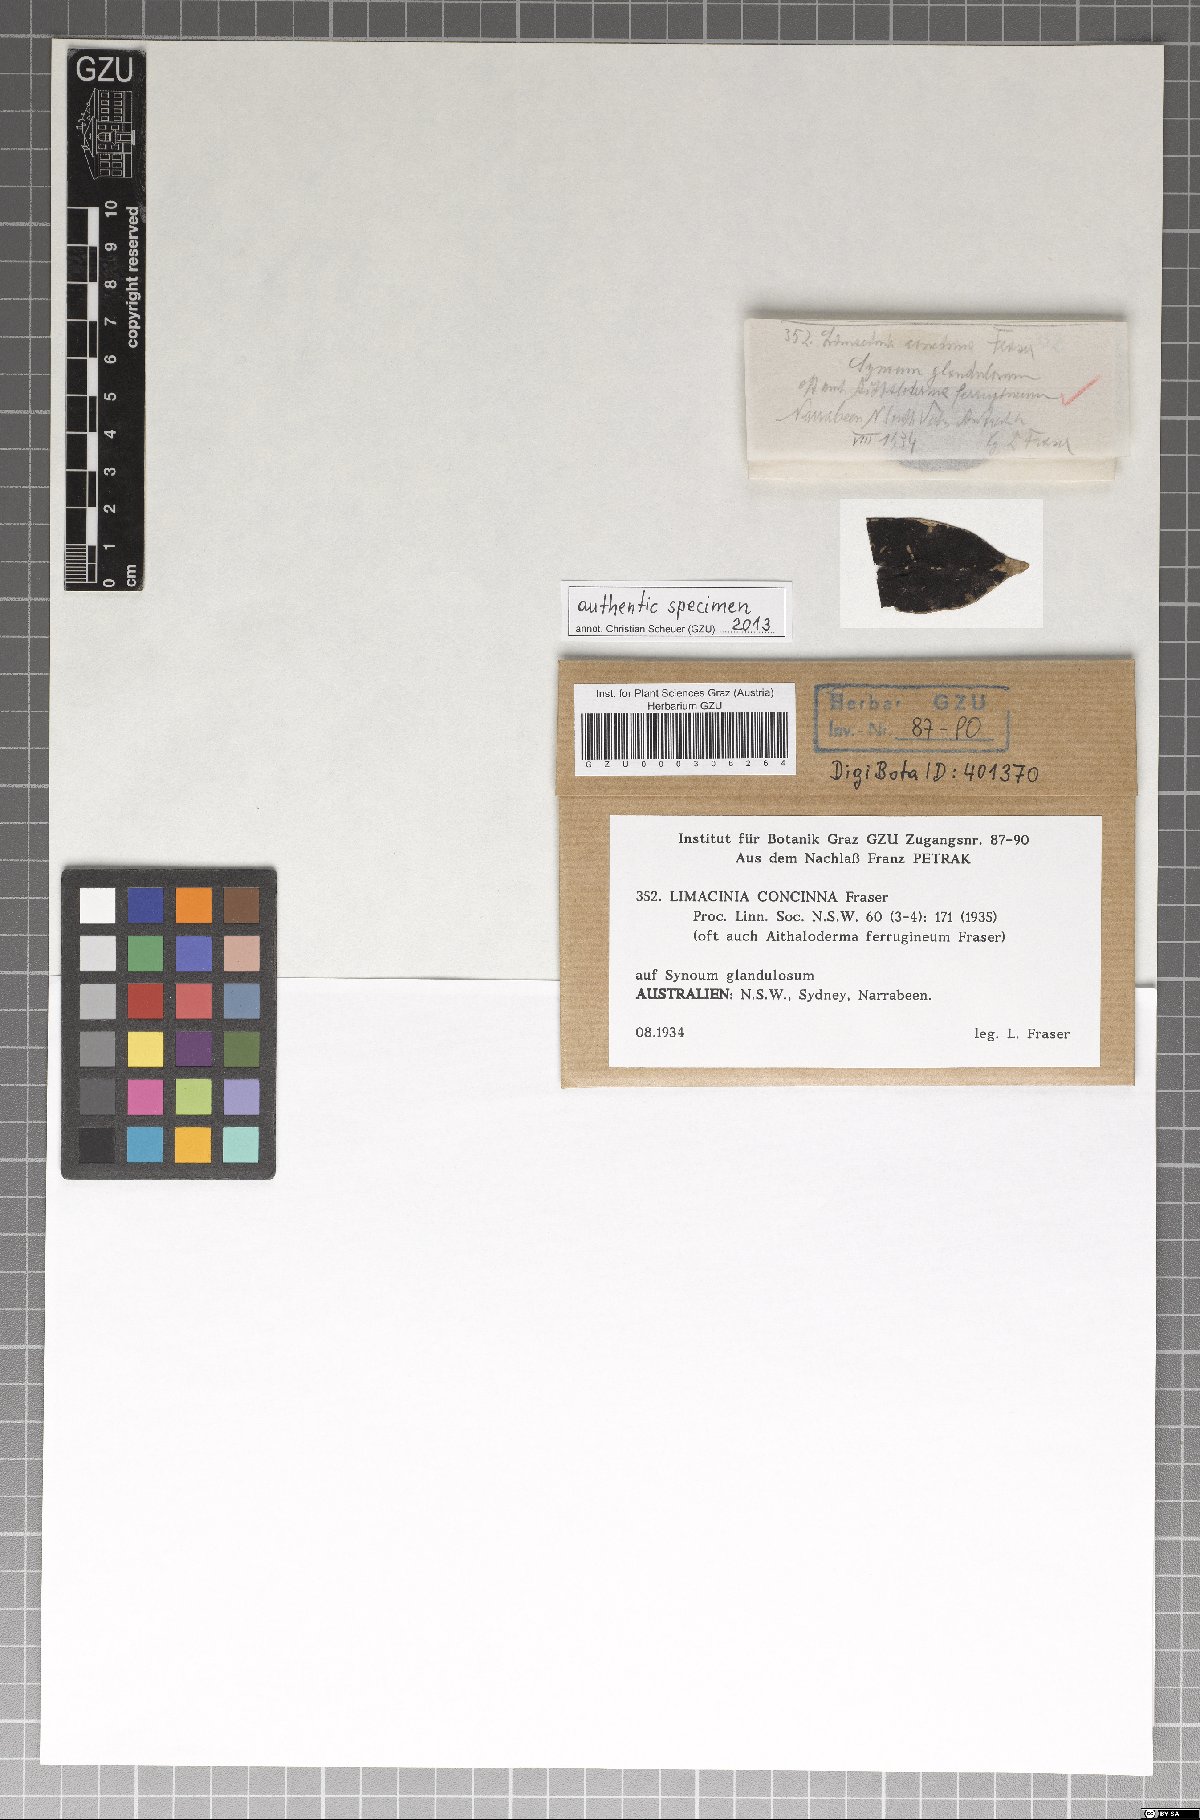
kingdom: Fungi
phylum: Ascomycota
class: Dothideomycetes
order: Capnodiales
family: Antennulariellaceae
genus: Antennulariella
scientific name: Antennulariella concinna
